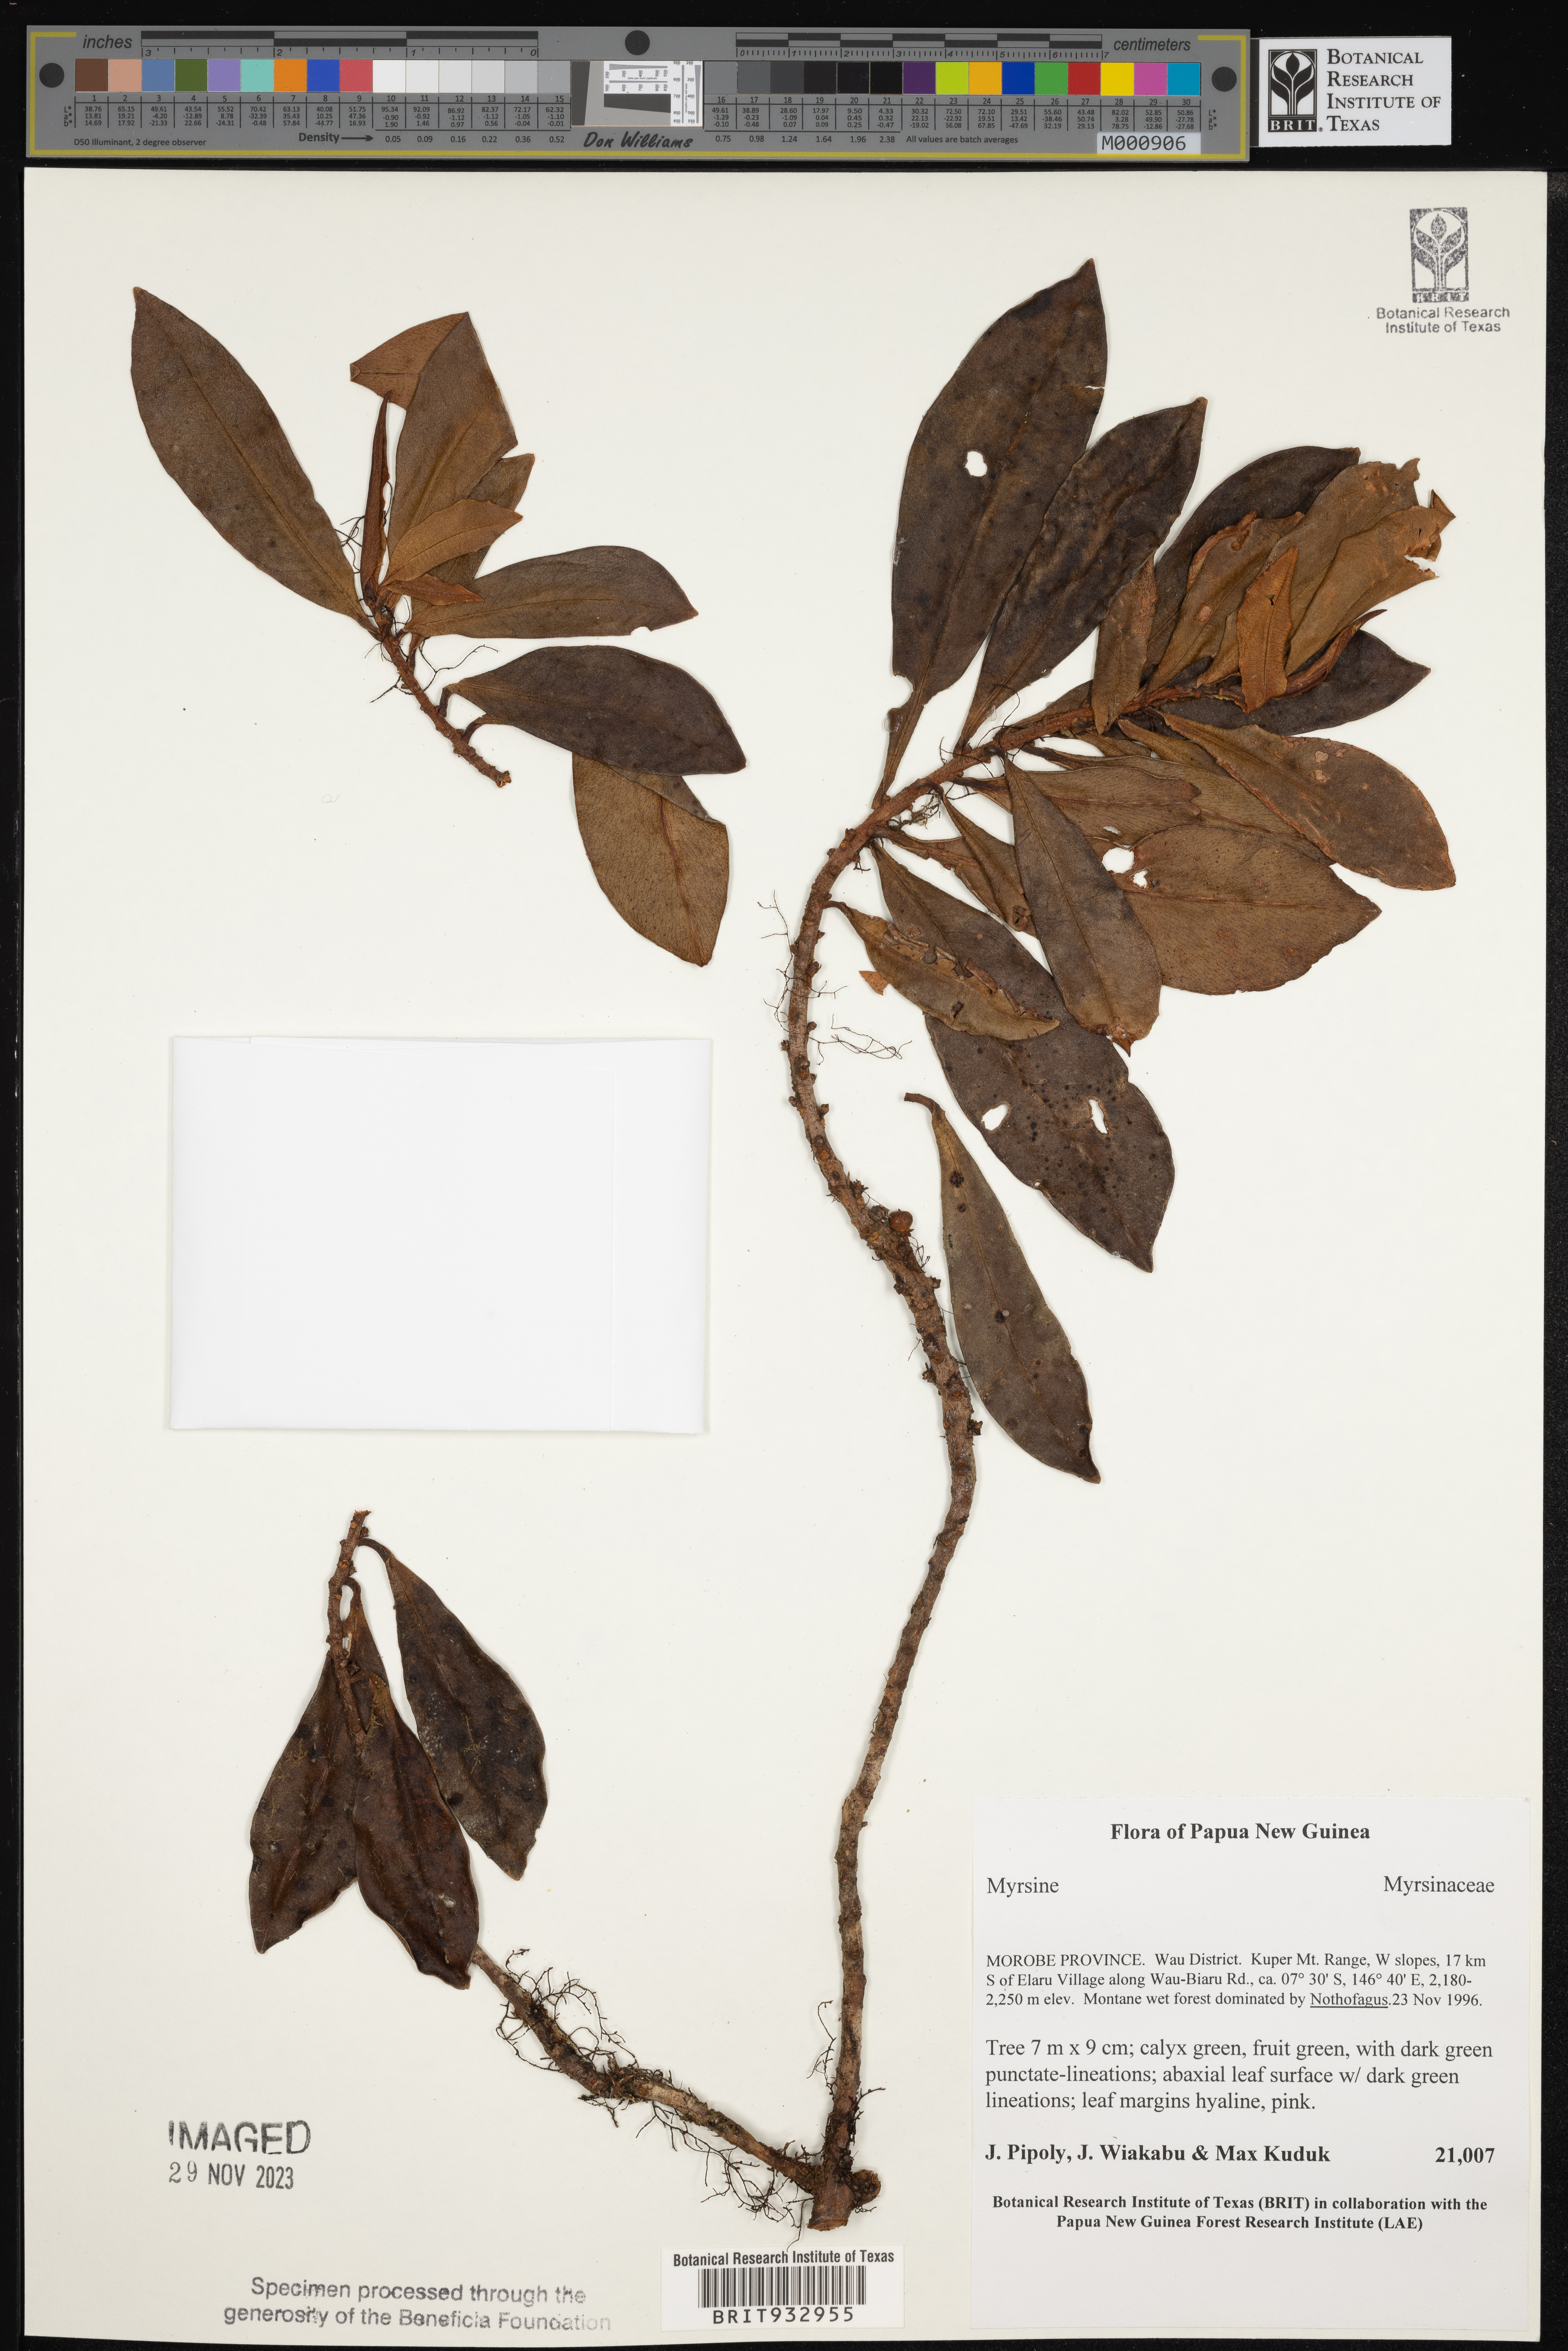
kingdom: Plantae
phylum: Tracheophyta
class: Magnoliopsida
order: Ericales
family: Primulaceae
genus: Myrsine
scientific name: Myrsine
